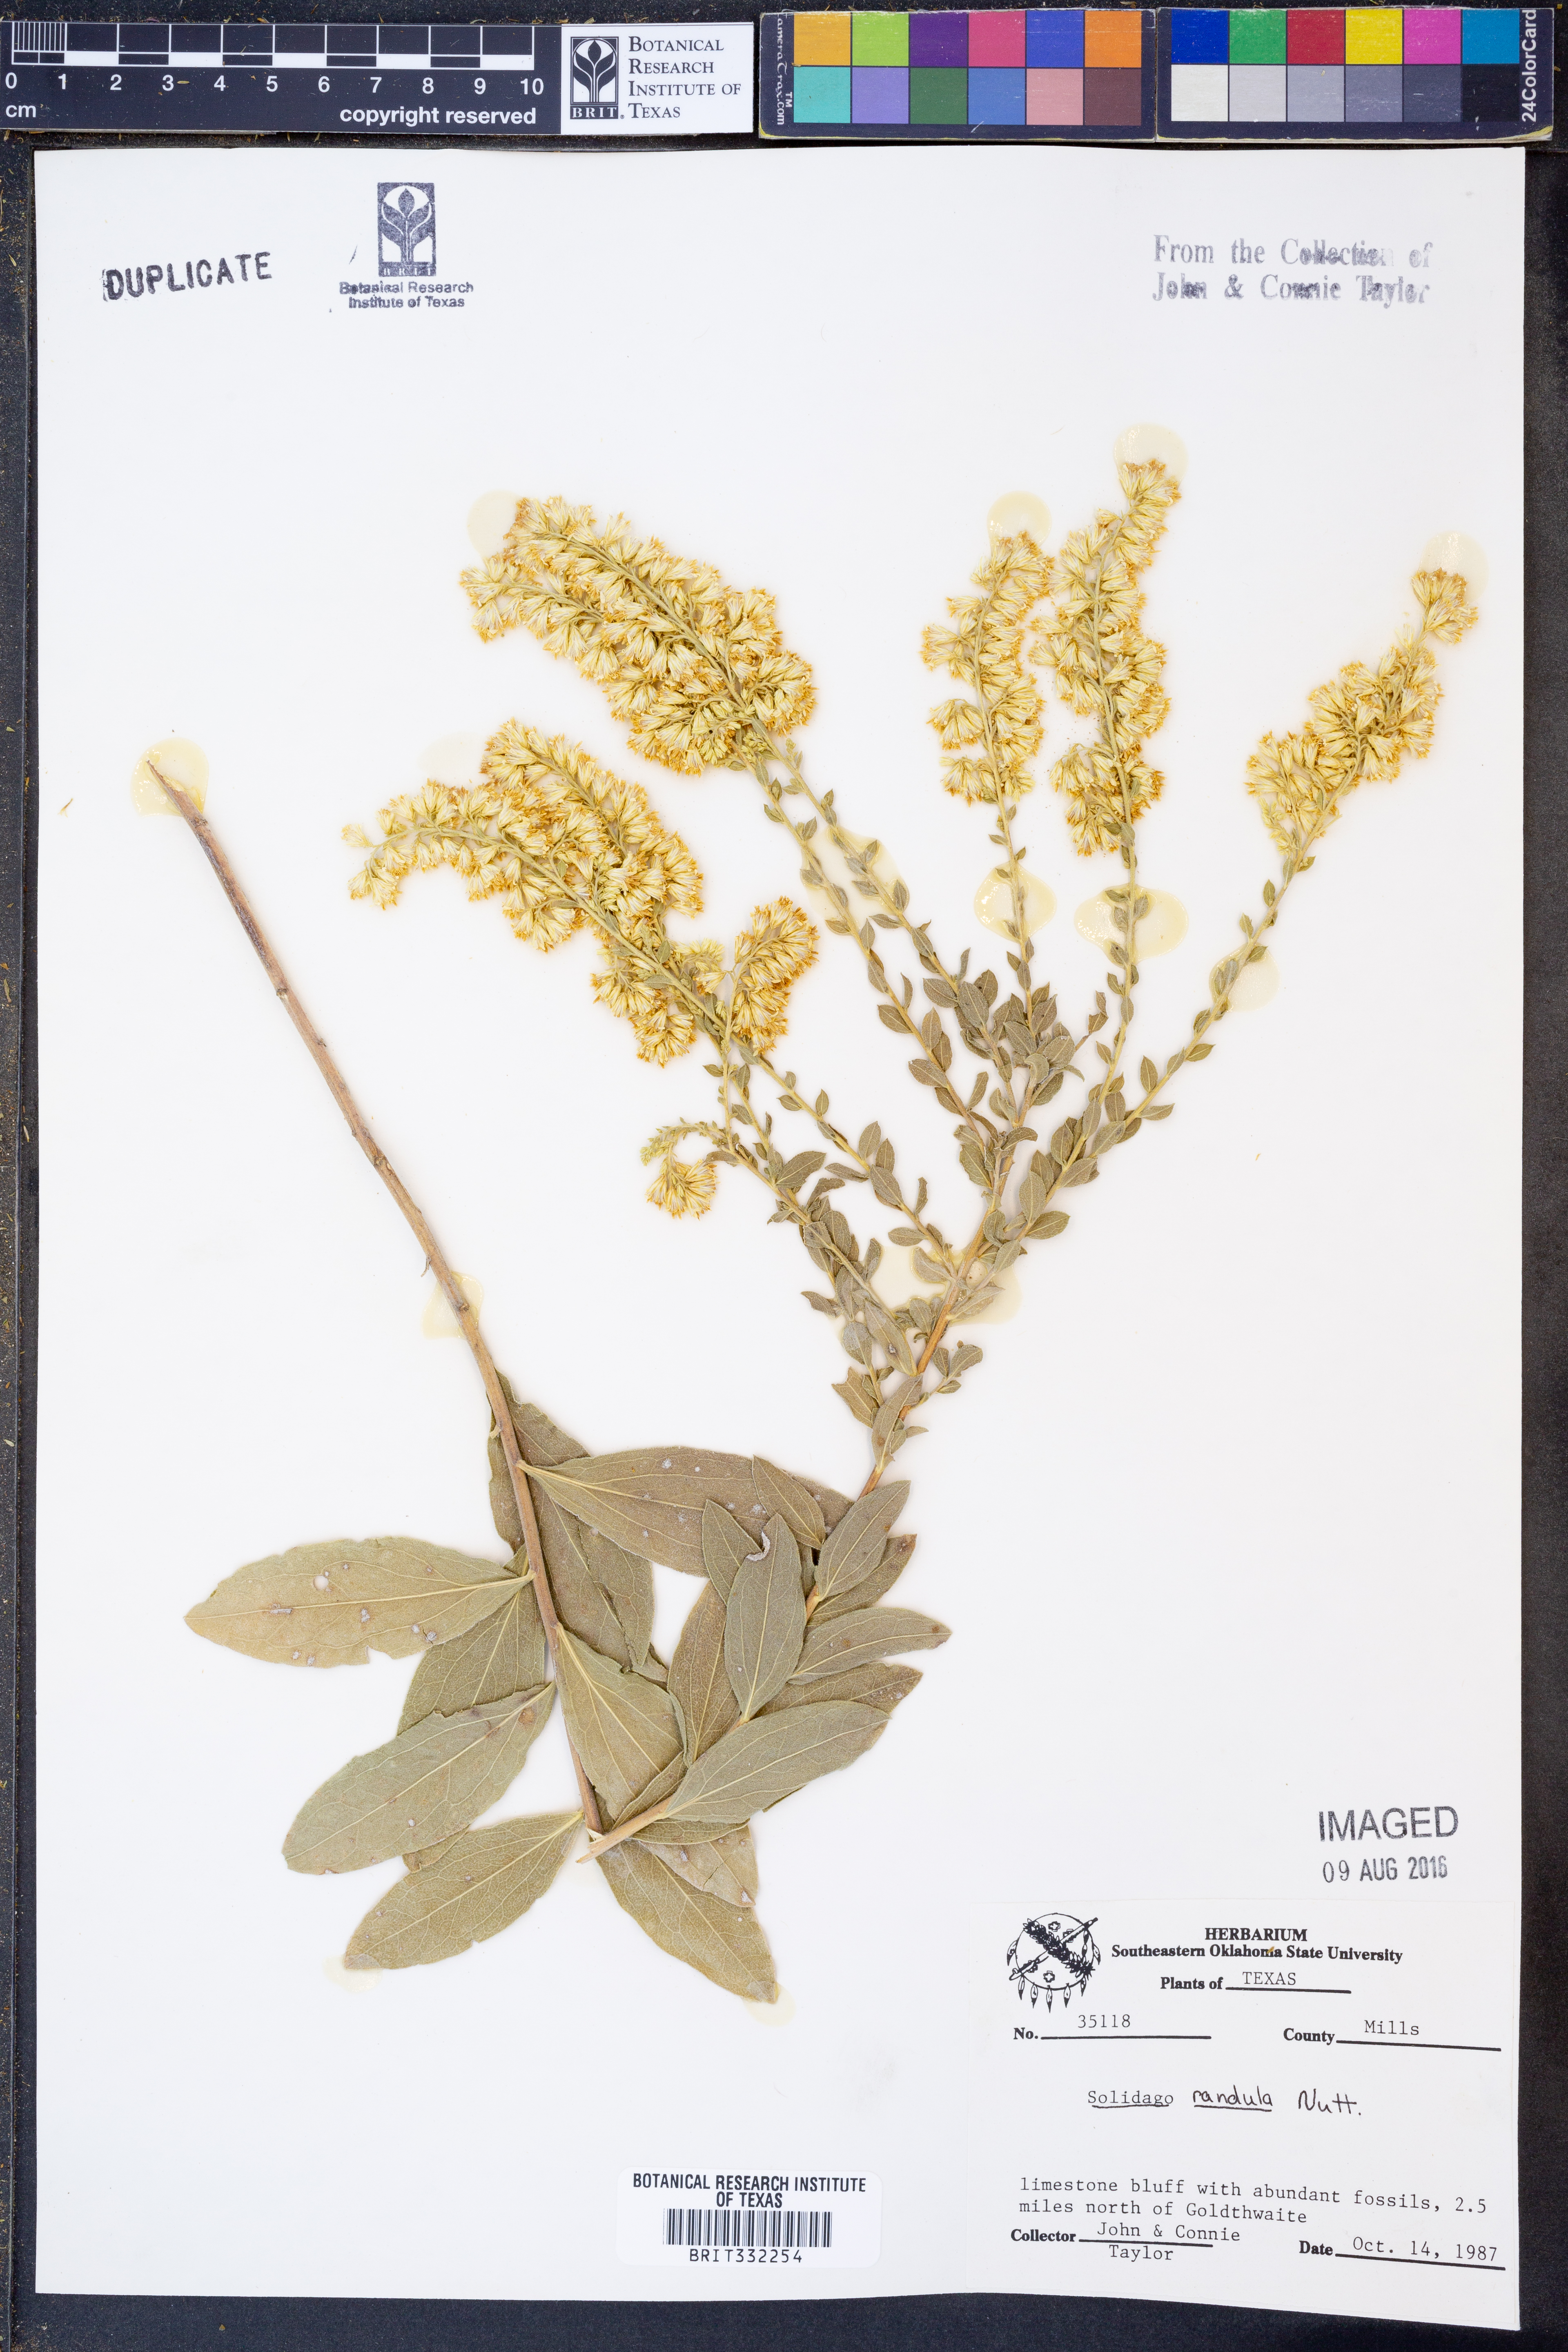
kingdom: Plantae
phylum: Tracheophyta
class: Magnoliopsida
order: Asterales
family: Asteraceae
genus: Solidago
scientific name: Solidago radula
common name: Western rough goldenrod
